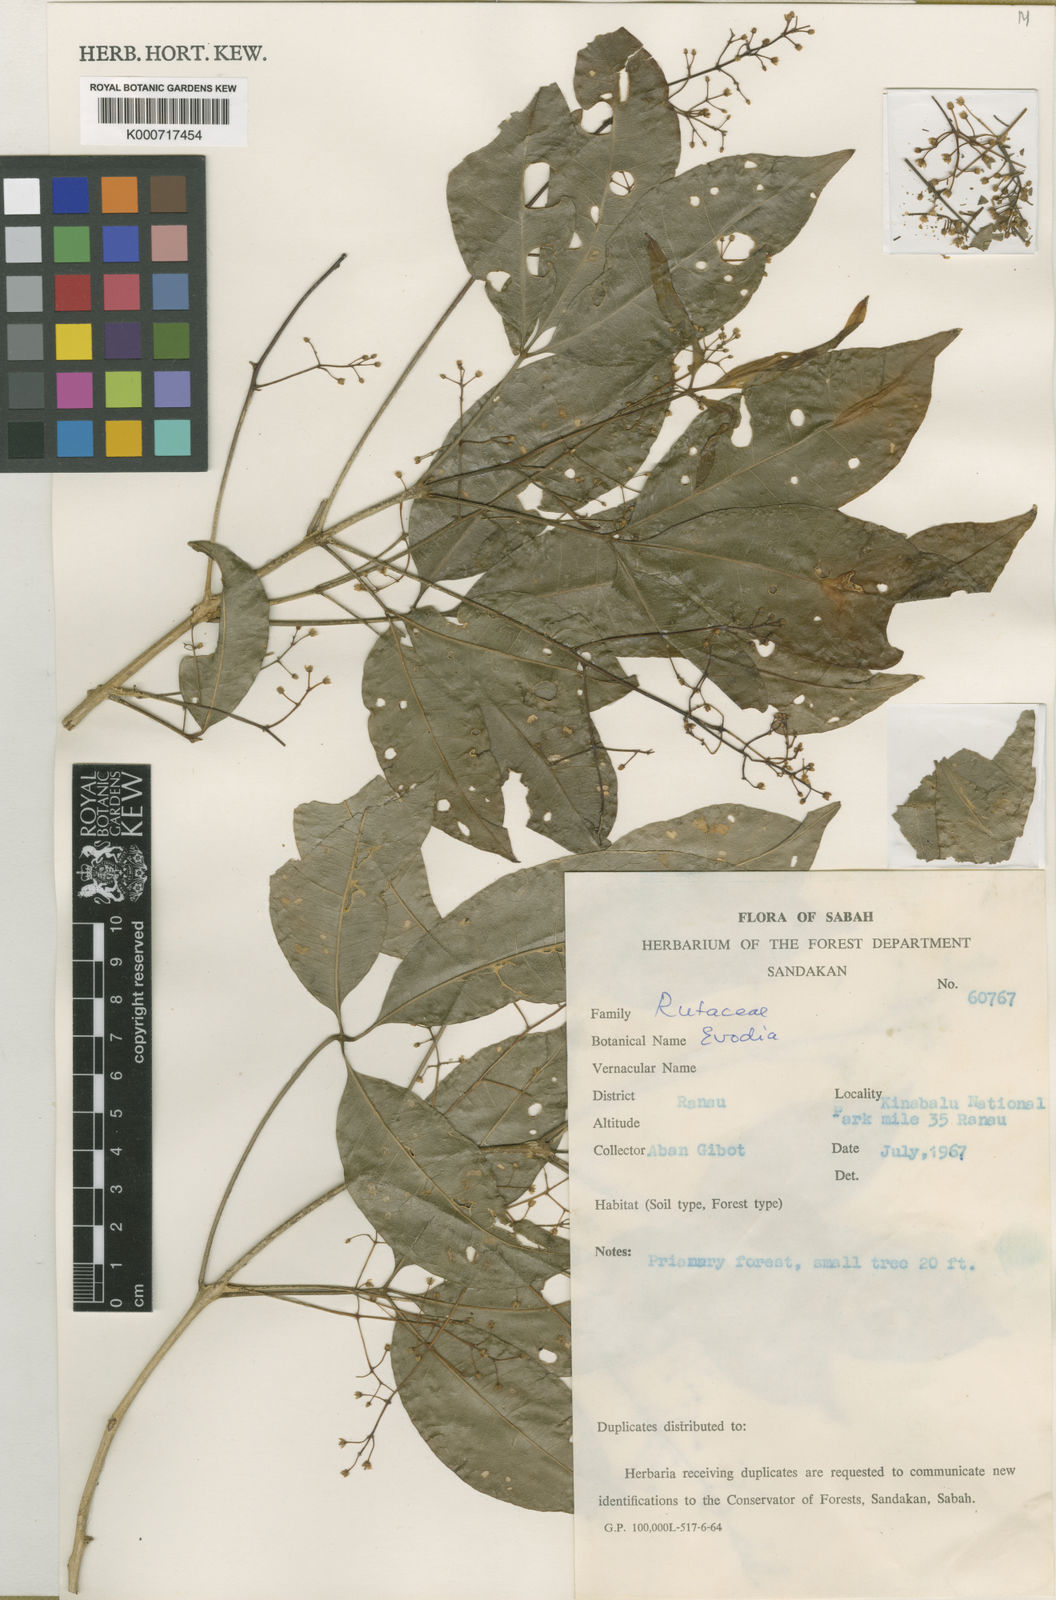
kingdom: Plantae
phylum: Tracheophyta
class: Magnoliopsida
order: Sapindales
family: Rutaceae
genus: Melicope
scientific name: Melicope clemensiae
